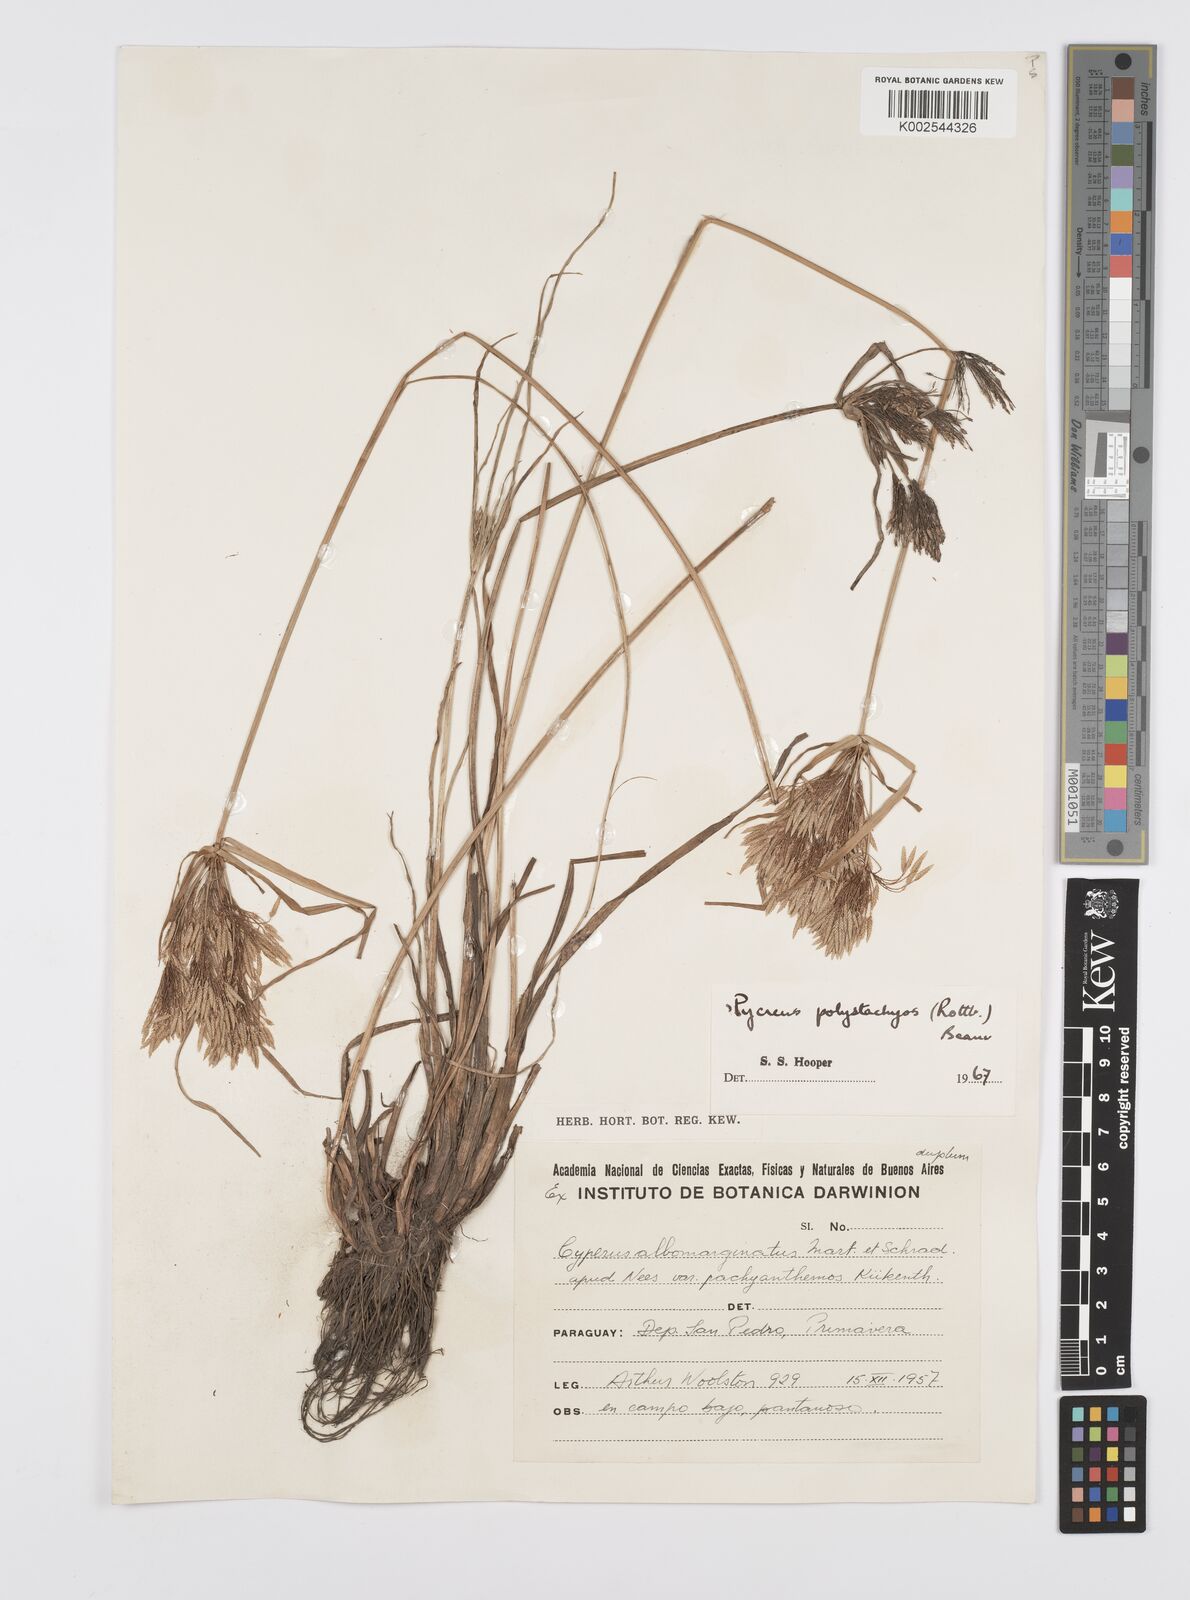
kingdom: Plantae
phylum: Tracheophyta
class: Liliopsida
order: Poales
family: Cyperaceae
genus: Cyperus
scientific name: Cyperus polystachyos
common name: Bunchy flat sedge
